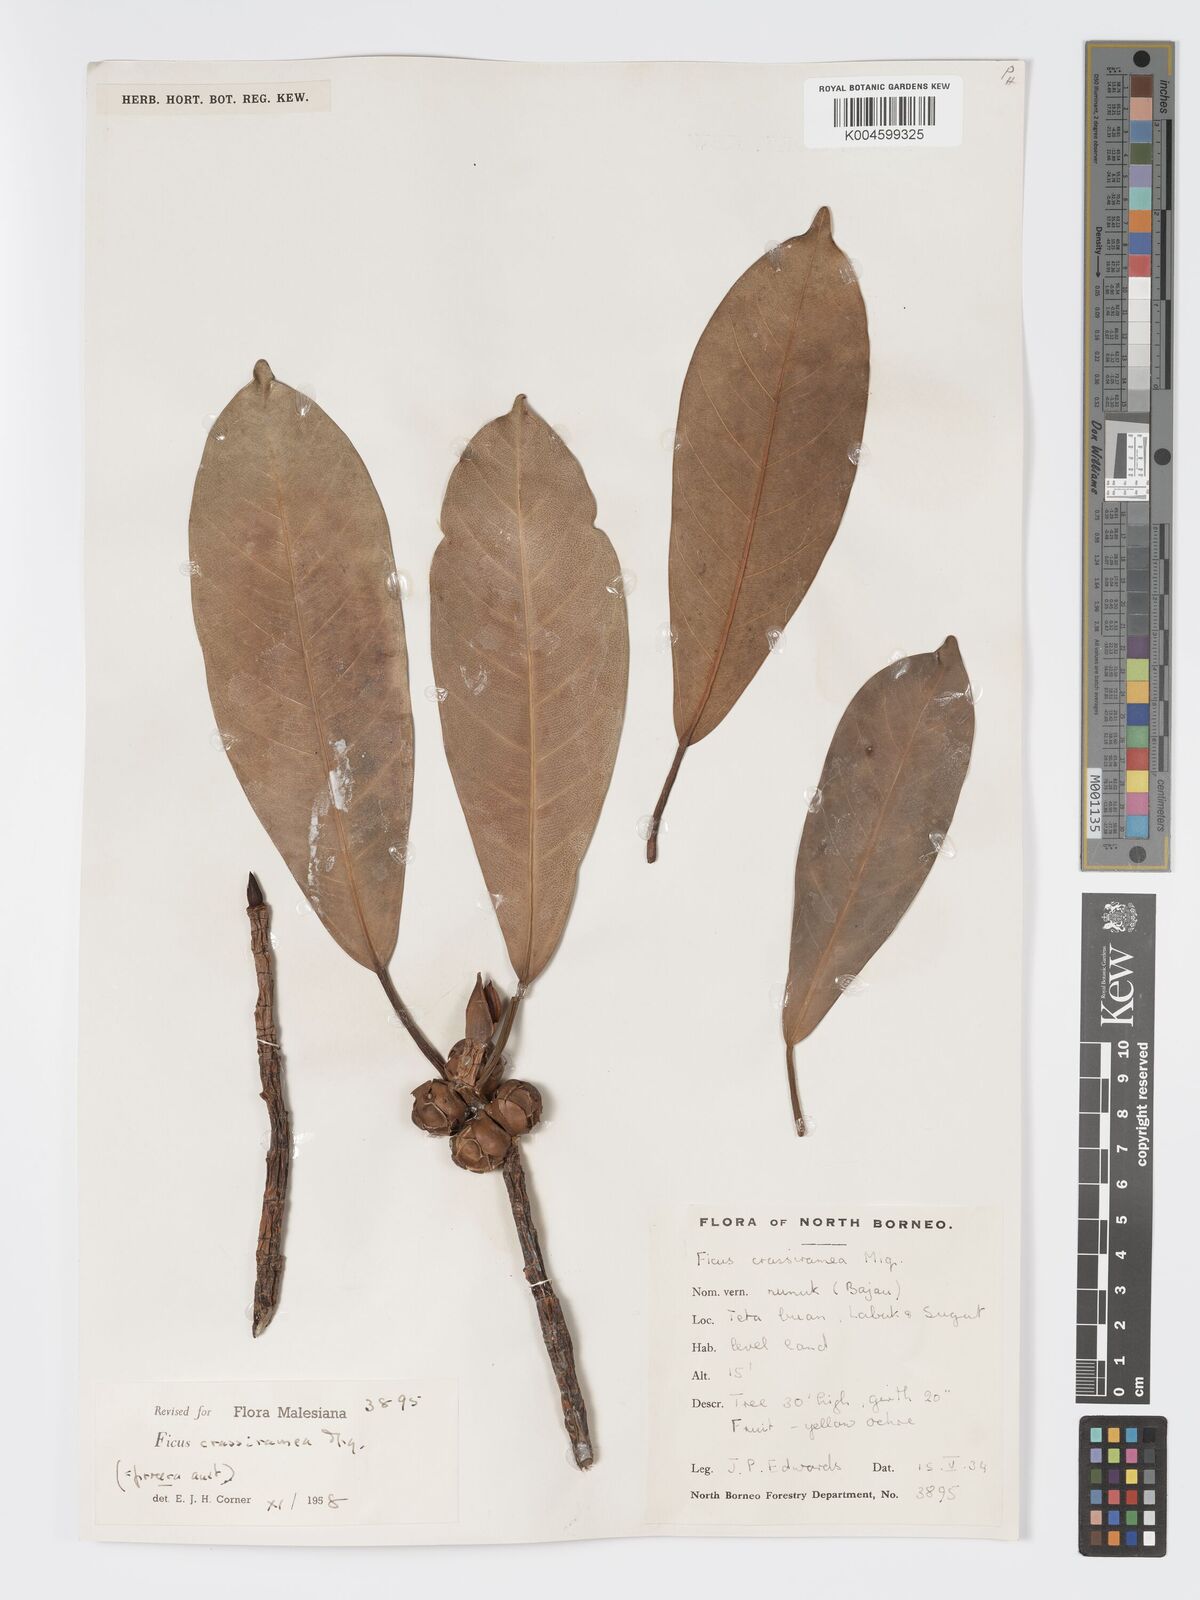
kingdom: Plantae
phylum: Tracheophyta
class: Magnoliopsida
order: Rosales
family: Moraceae
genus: Ficus
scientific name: Ficus crassiramea
